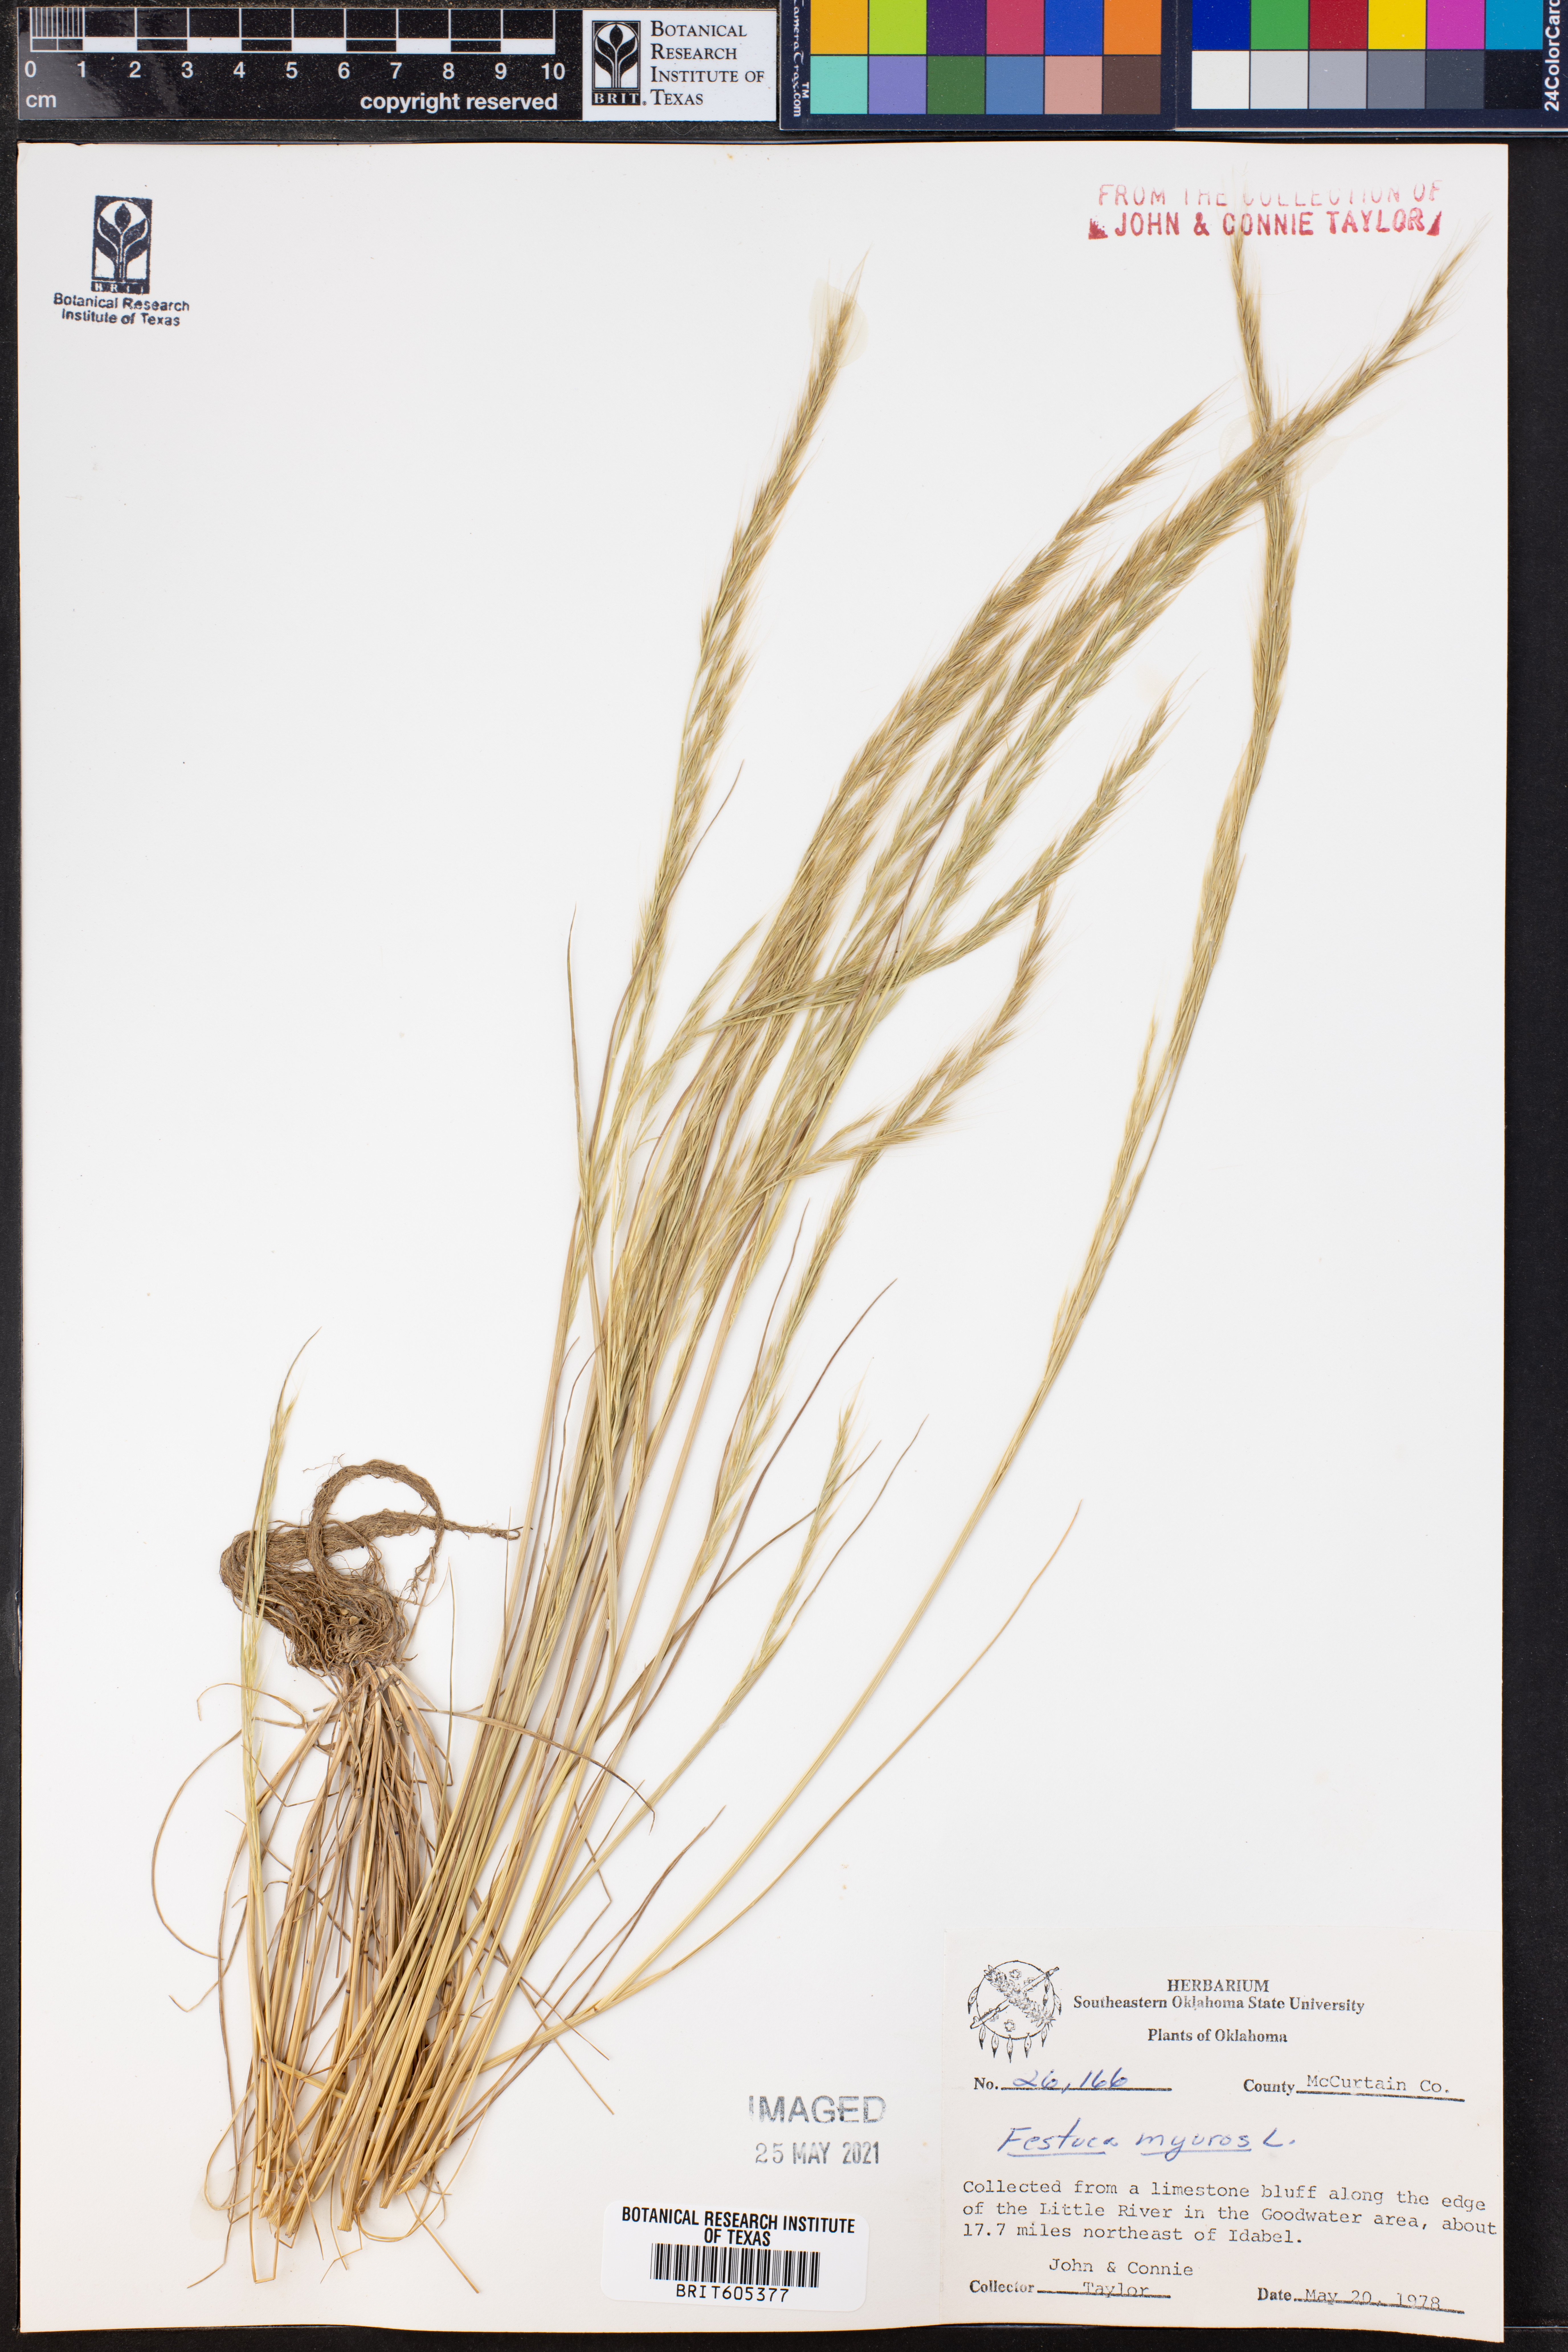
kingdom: Plantae
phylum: Tracheophyta
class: Liliopsida
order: Poales
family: Poaceae
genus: Festuca
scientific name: Festuca myuros
